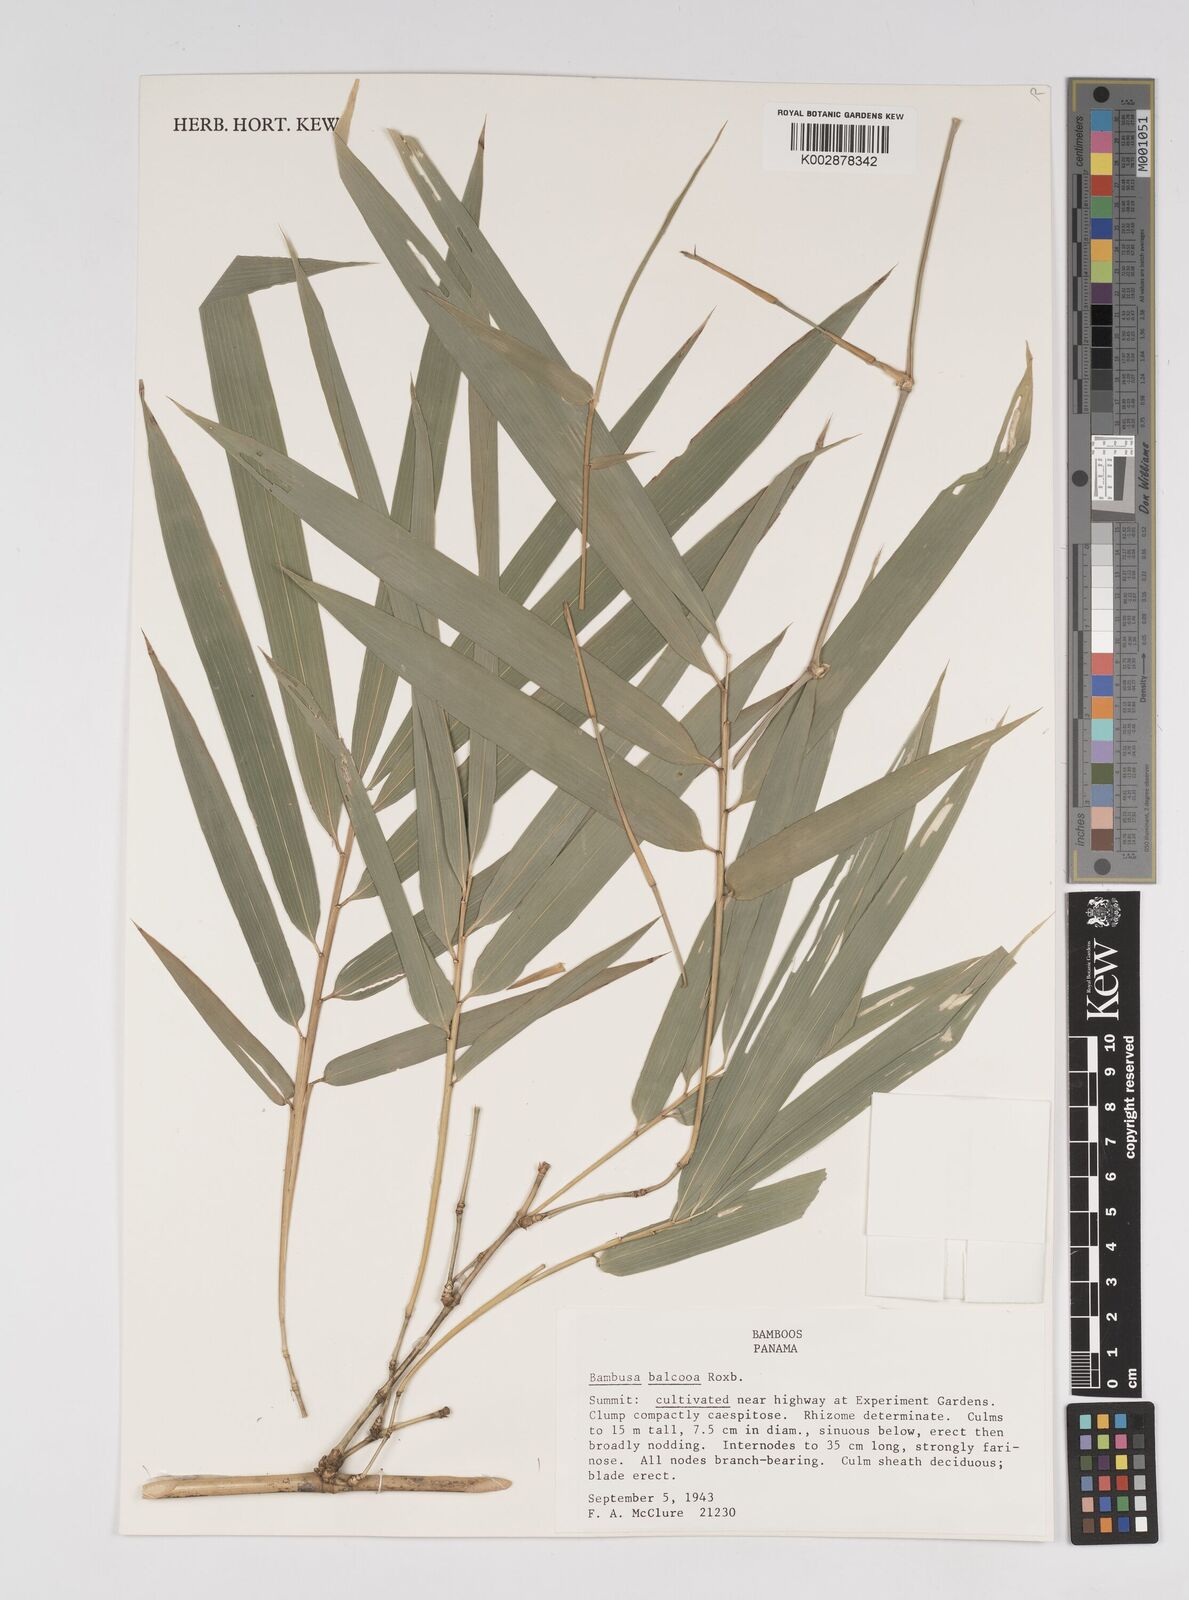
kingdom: Plantae
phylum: Tracheophyta
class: Liliopsida
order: Poales
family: Poaceae
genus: Bambusa
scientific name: Bambusa balcooa
